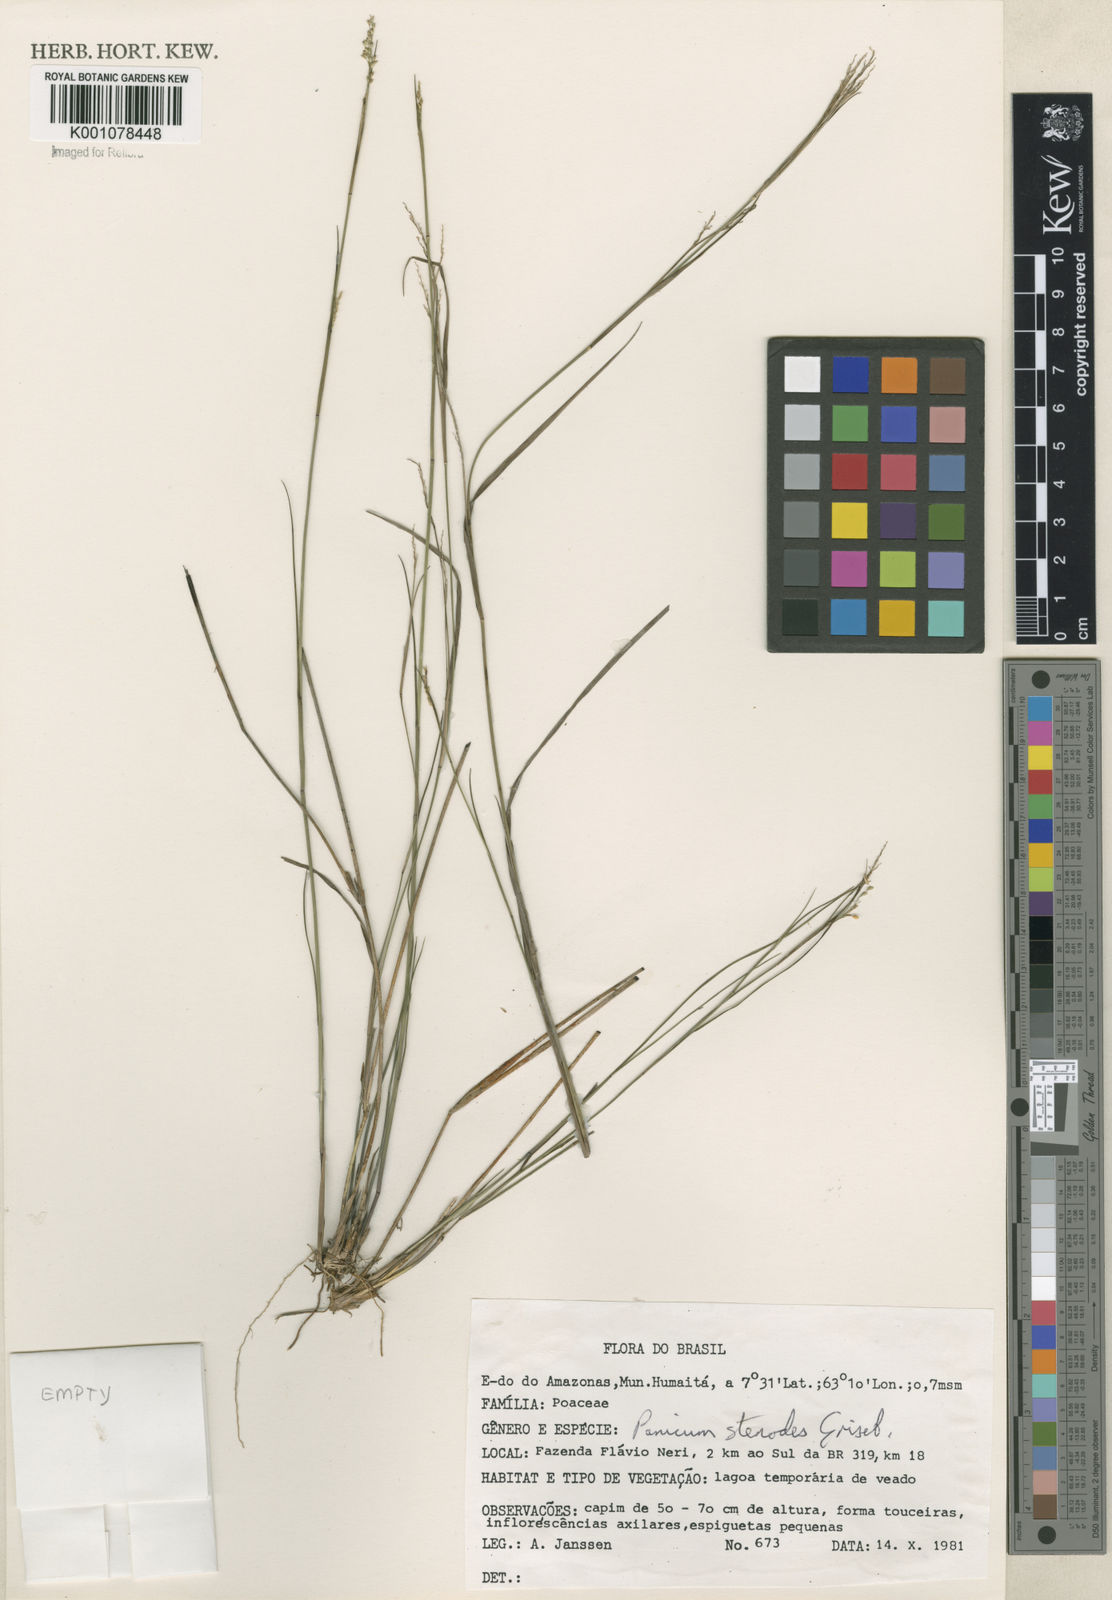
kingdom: Plantae
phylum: Tracheophyta
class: Liliopsida
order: Poales
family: Poaceae
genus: Panicum
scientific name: Panicum virgatum
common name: Switchgrass
